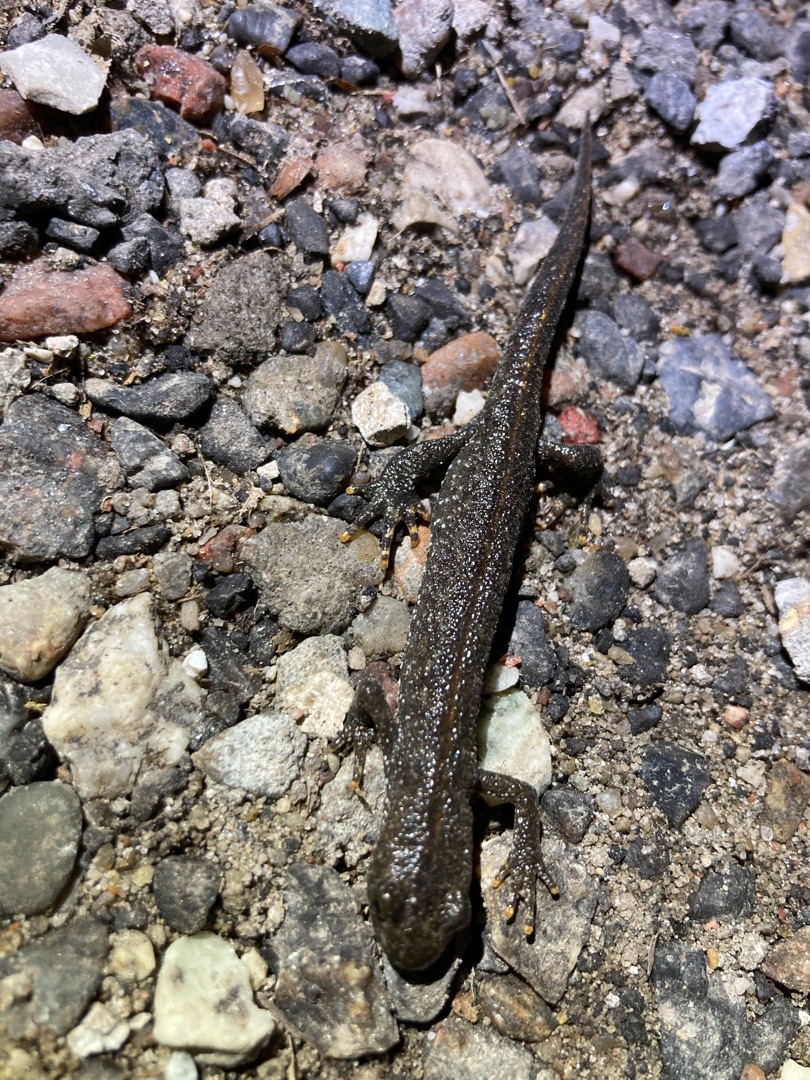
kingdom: Animalia
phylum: Chordata
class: Amphibia
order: Caudata
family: Salamandridae
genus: Triturus
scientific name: Triturus cristatus
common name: Stor vandsalamander
